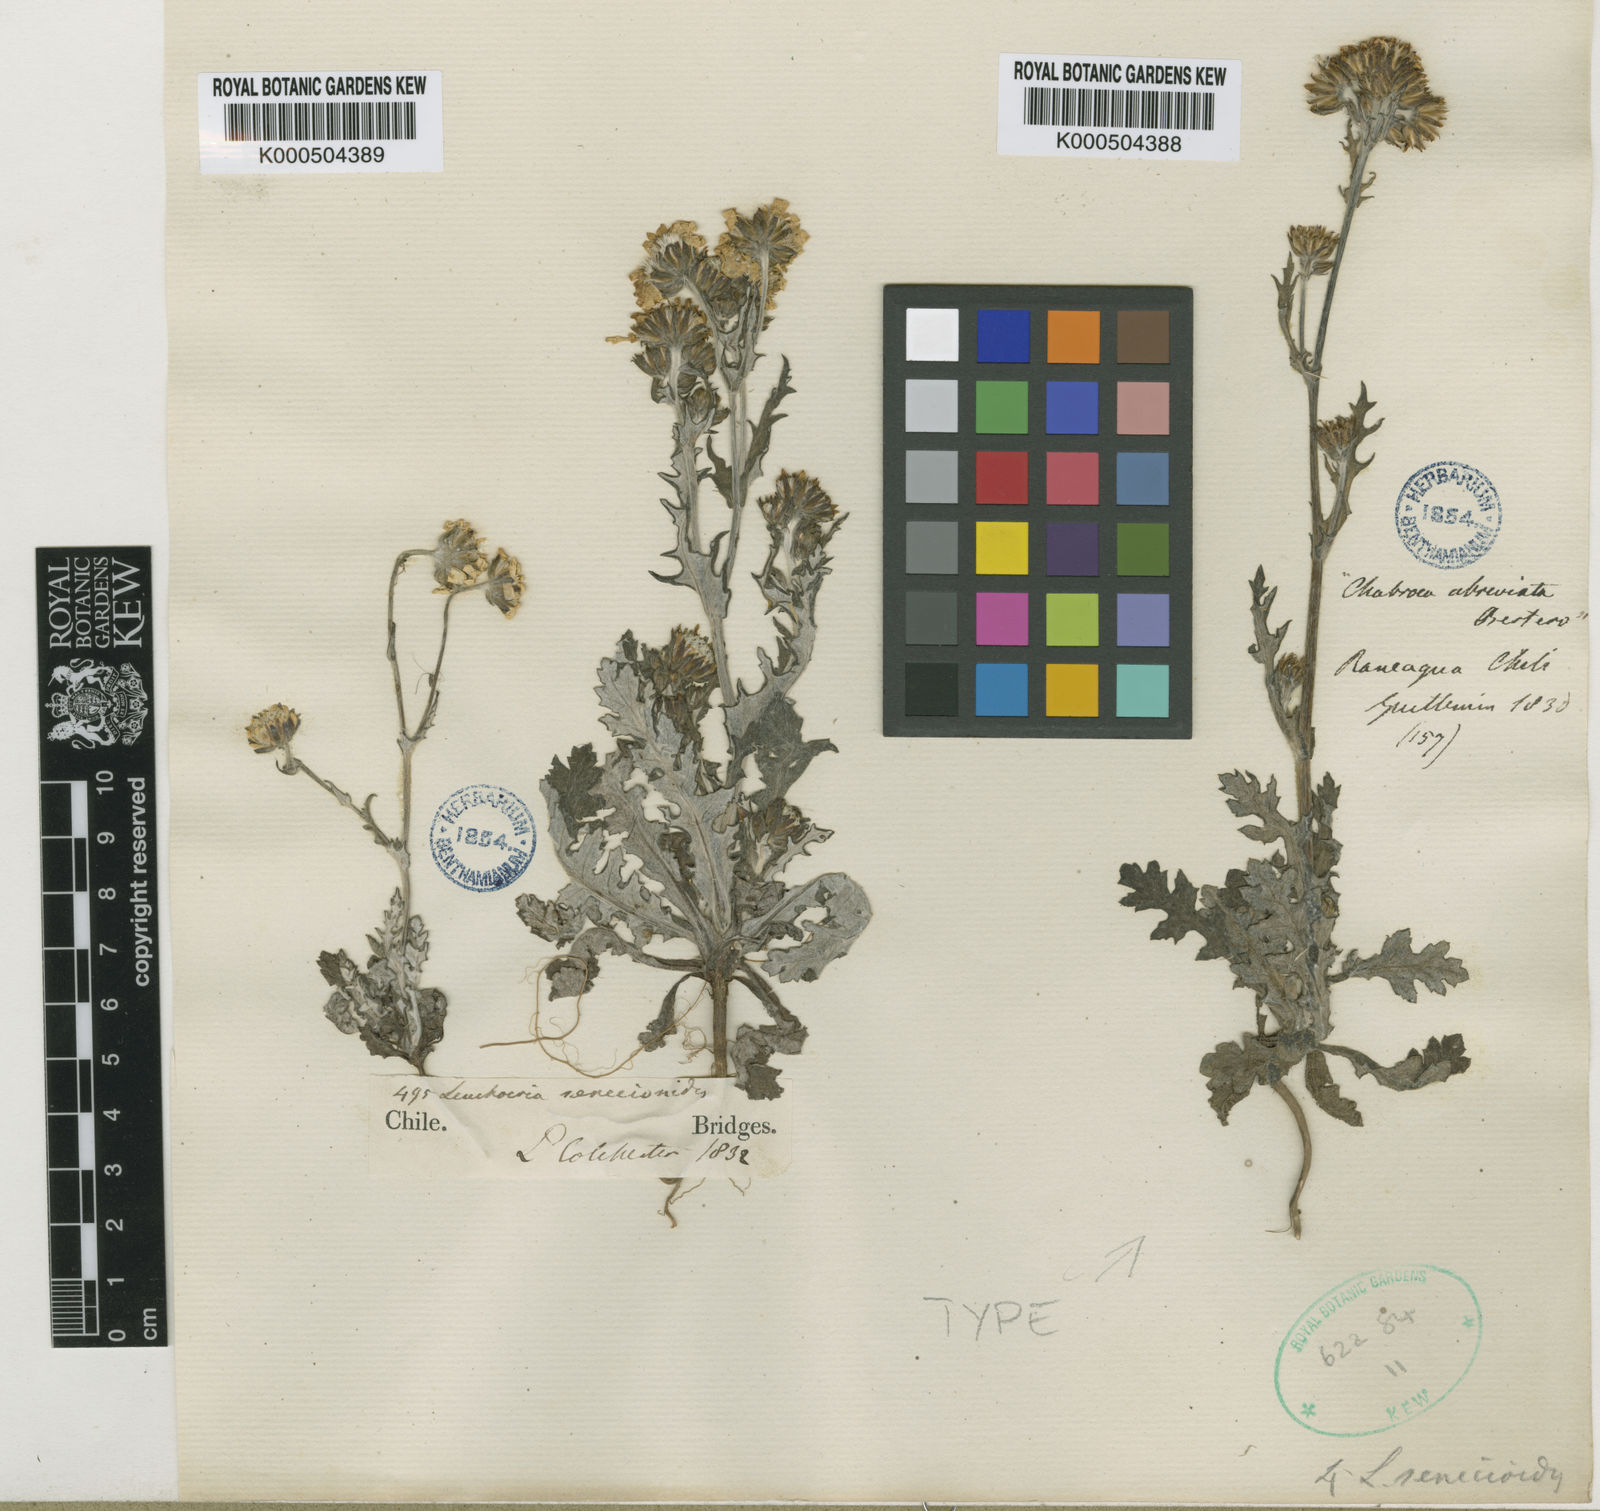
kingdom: Plantae
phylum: Tracheophyta
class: Magnoliopsida
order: Asterales
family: Asteraceae
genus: Leucheria
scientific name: Leucheria senecioides
